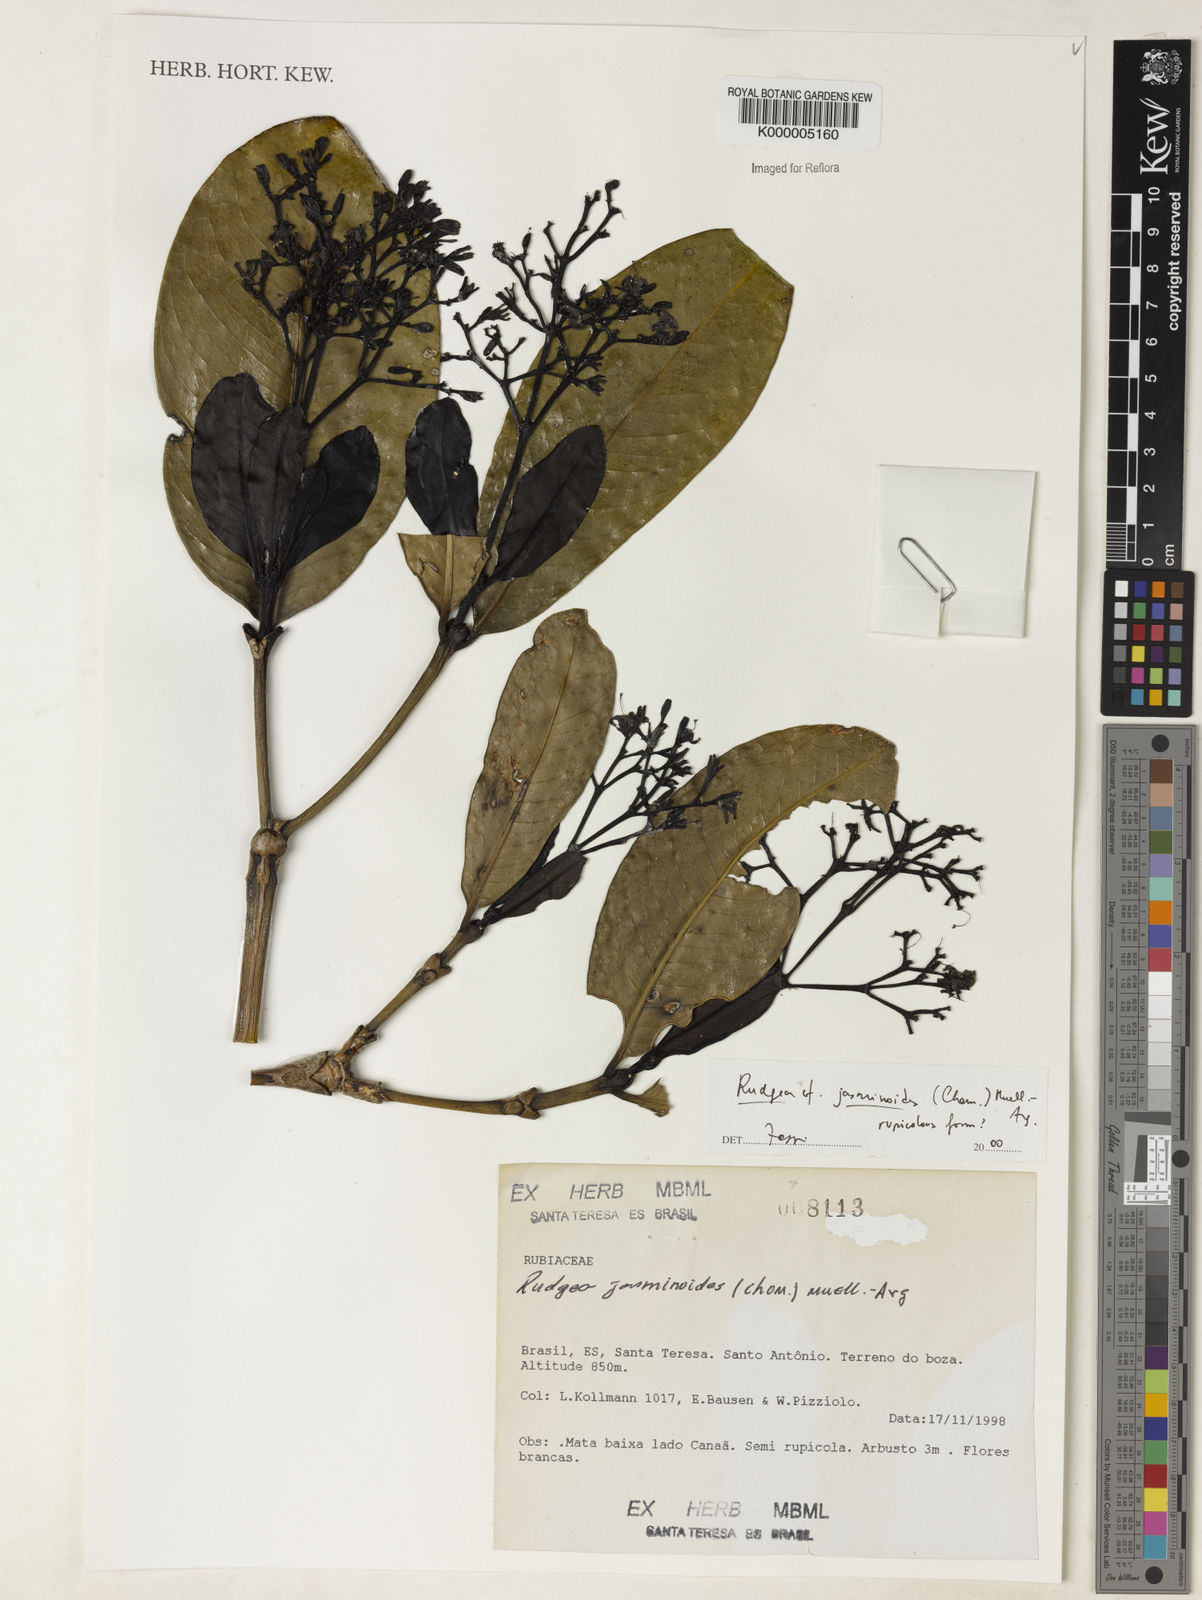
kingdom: Plantae
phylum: Tracheophyta
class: Magnoliopsida
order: Gentianales
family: Rubiaceae
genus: Rudgea
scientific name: Rudgea jasminoides
